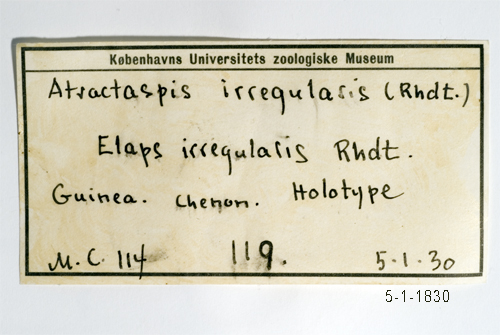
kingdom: Animalia
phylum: Chordata
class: Squamata
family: Atractaspididae
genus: Atractaspis
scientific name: Atractaspis irregularis
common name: Mole viper
